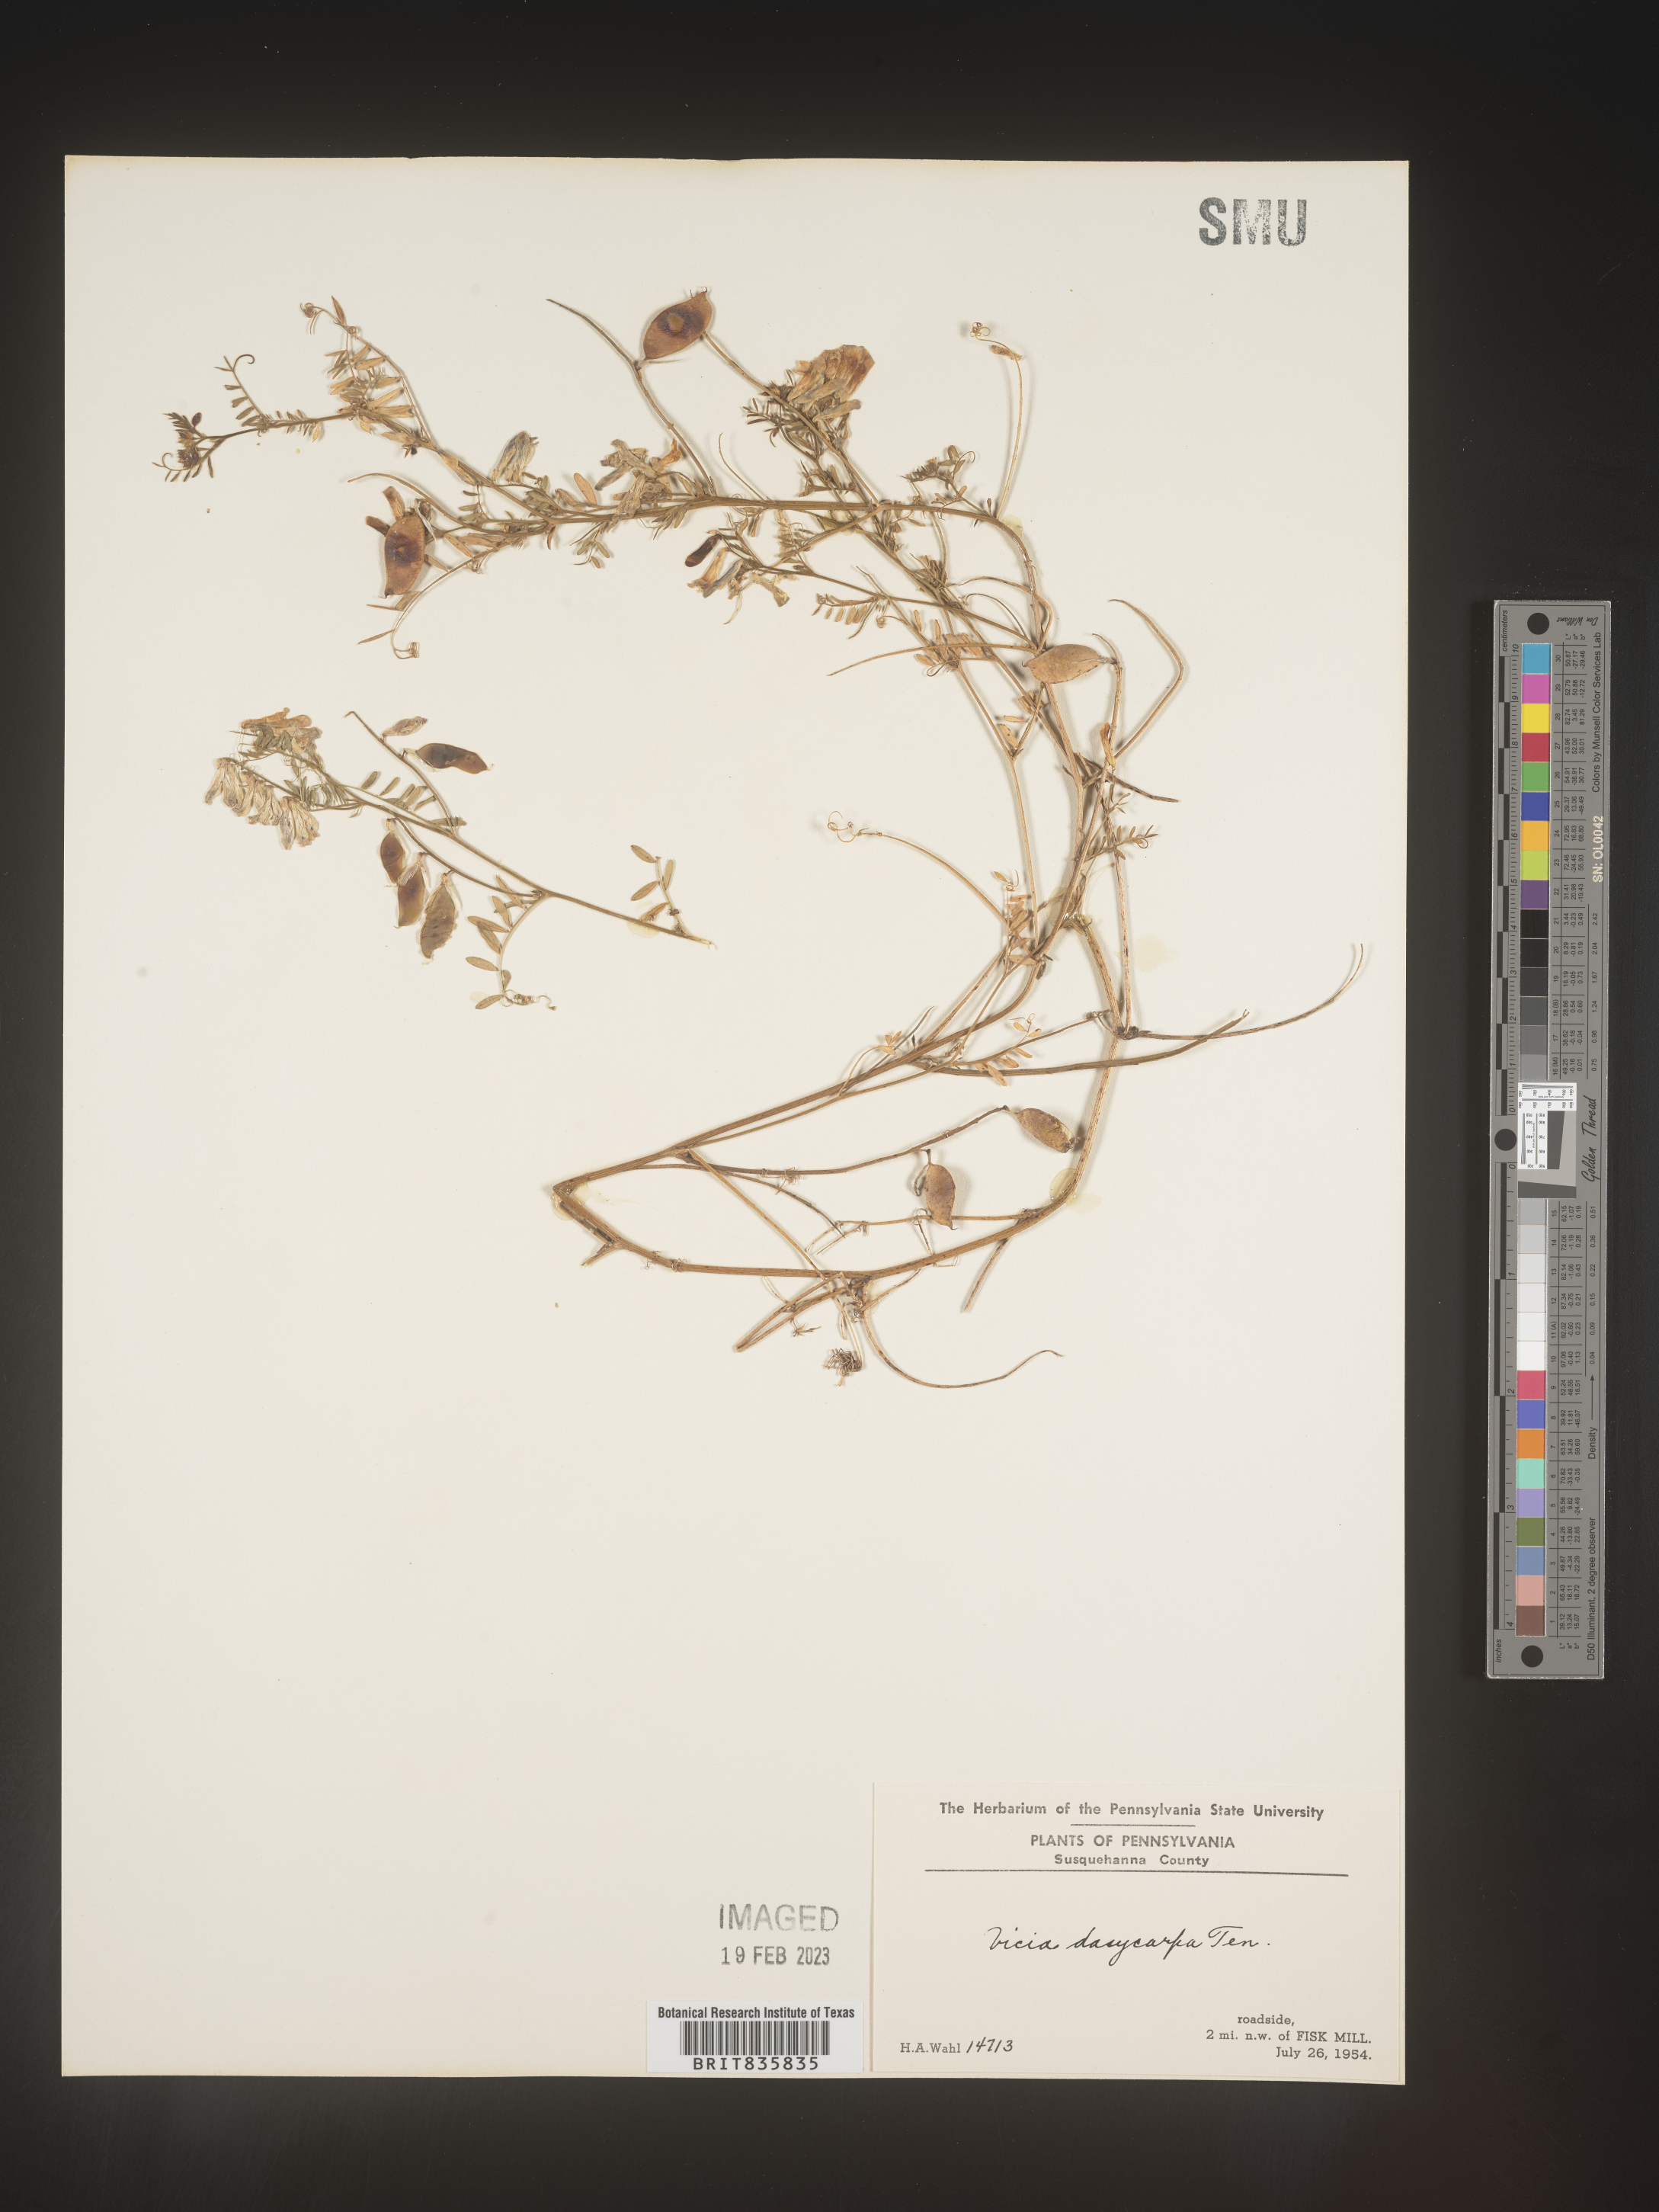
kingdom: Plantae
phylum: Tracheophyta
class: Magnoliopsida
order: Fabales
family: Fabaceae
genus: Vicia
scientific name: Vicia villosa
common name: Fodder vetch
